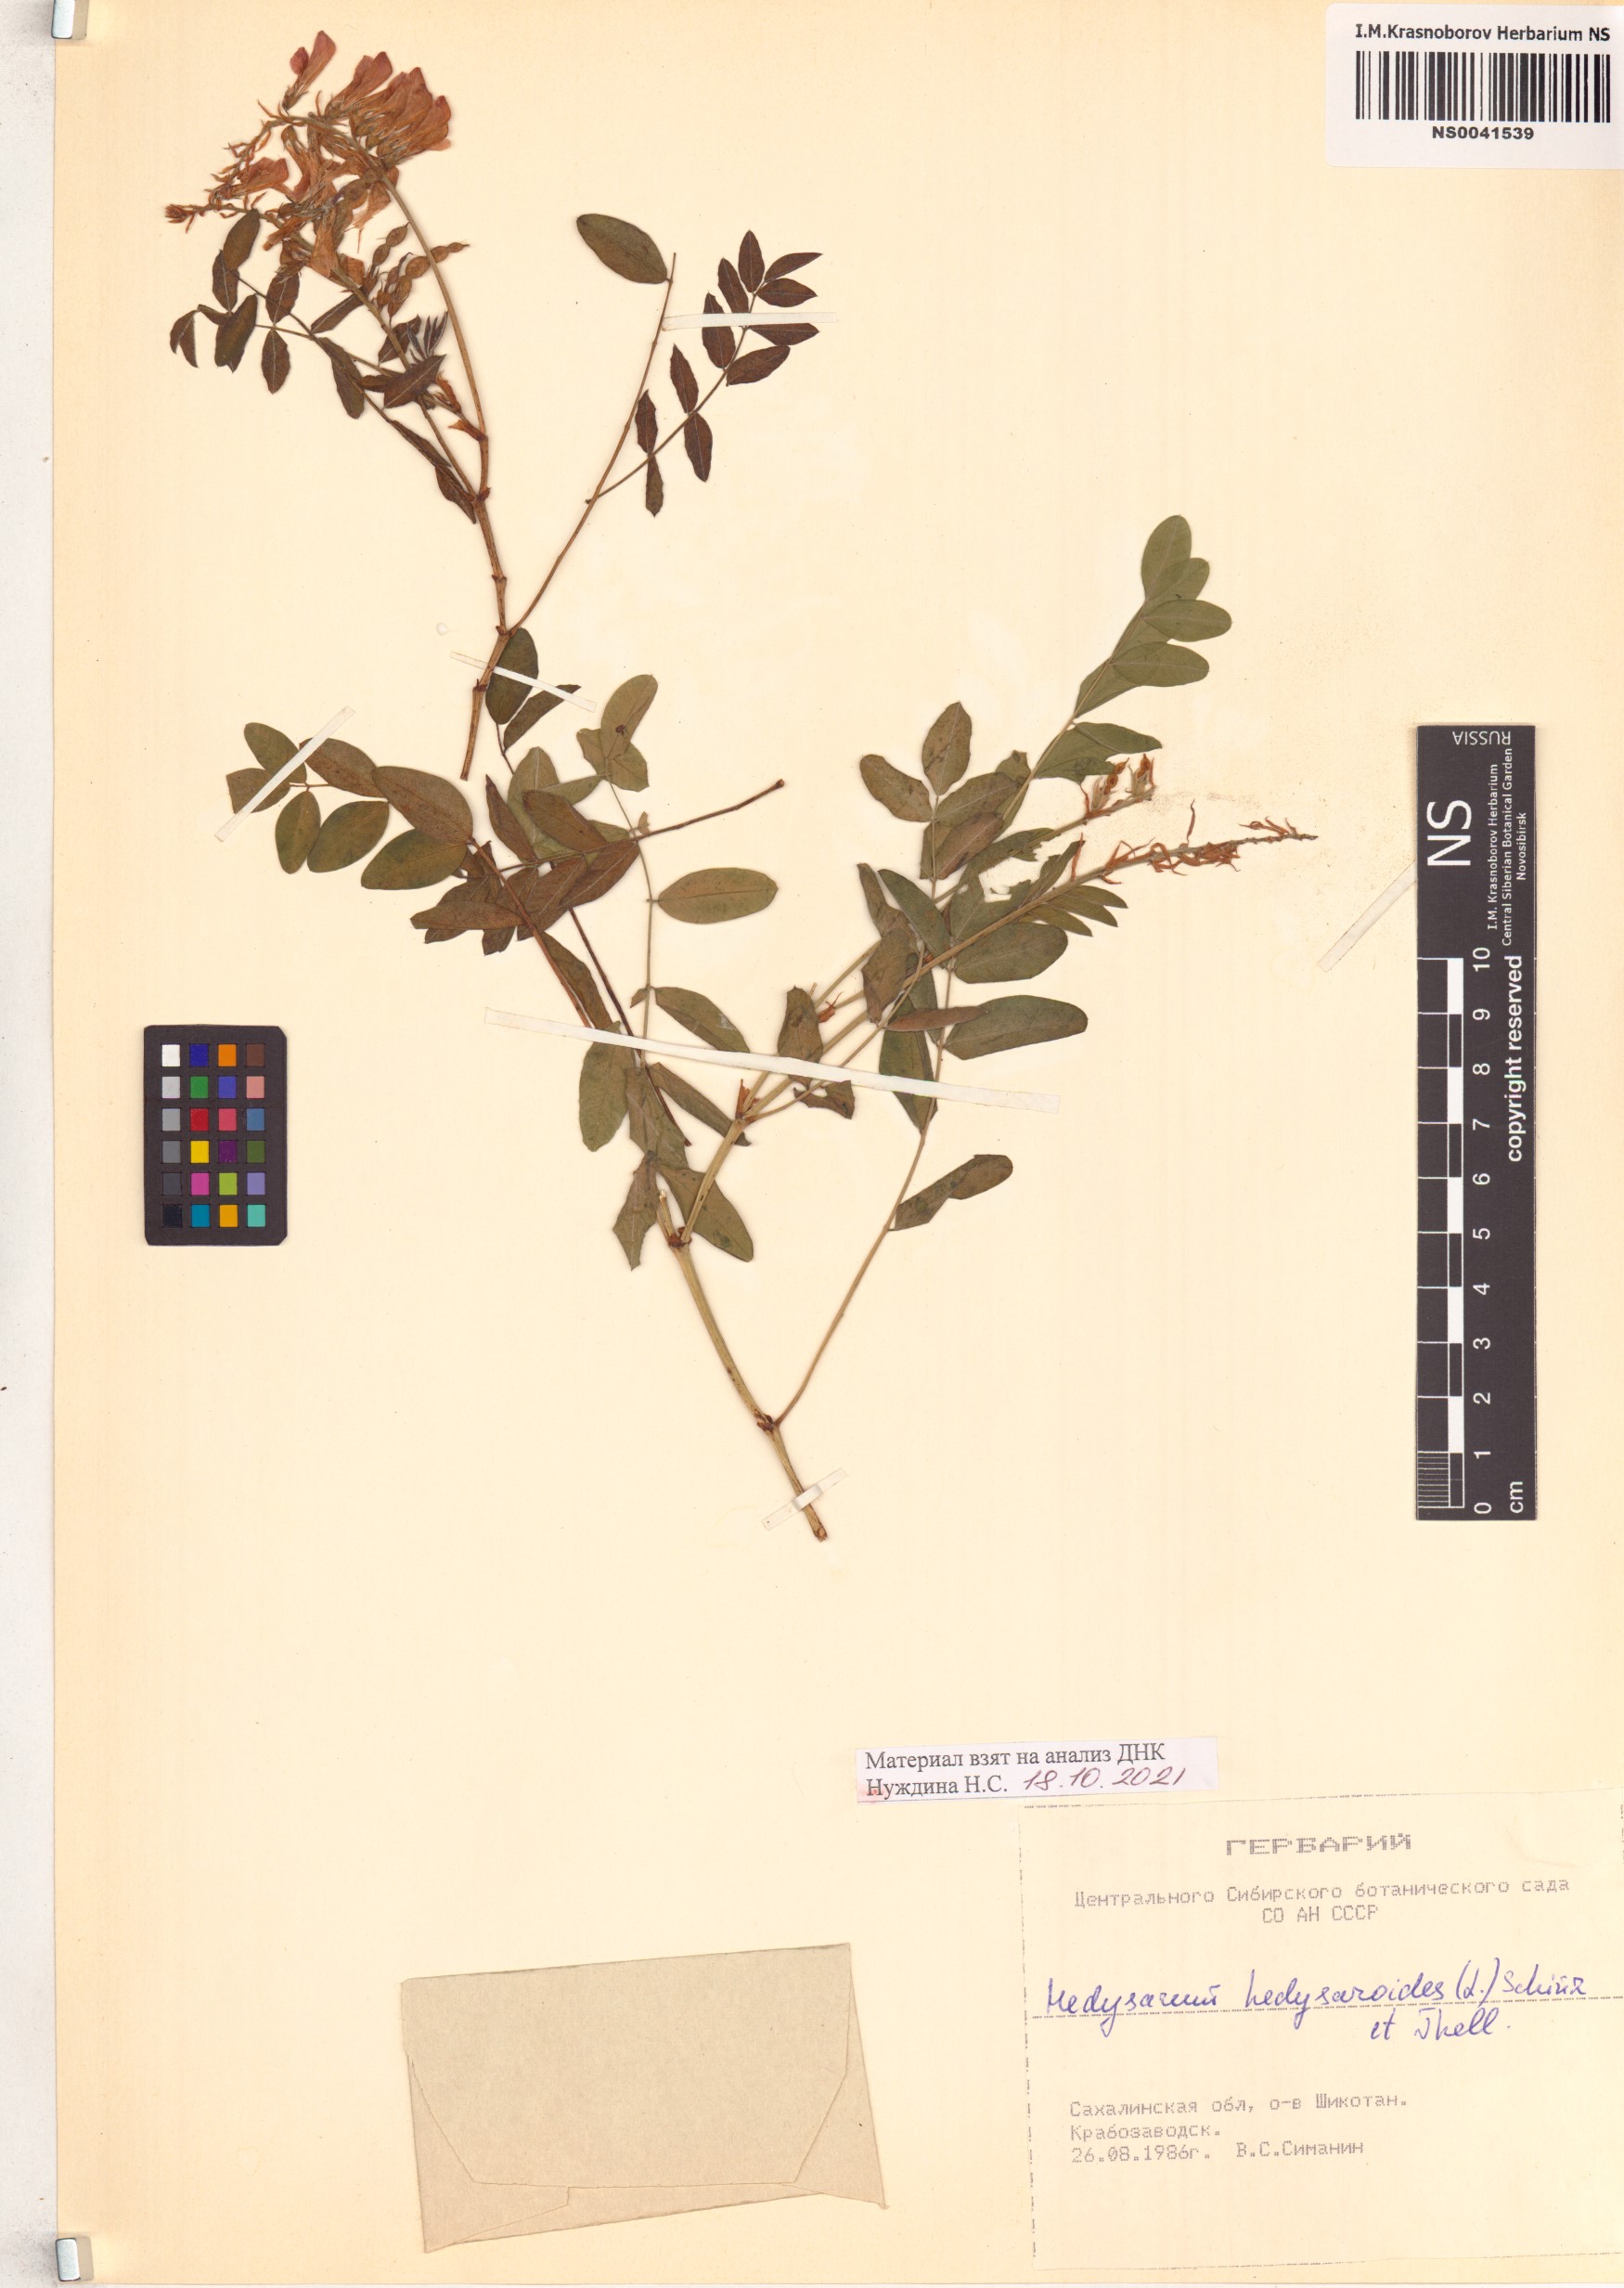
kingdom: Plantae
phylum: Tracheophyta
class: Magnoliopsida
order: Fabales
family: Fabaceae
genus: Hedysarum
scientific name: Hedysarum hedysaroides
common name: Alpine french-honeysuckle
